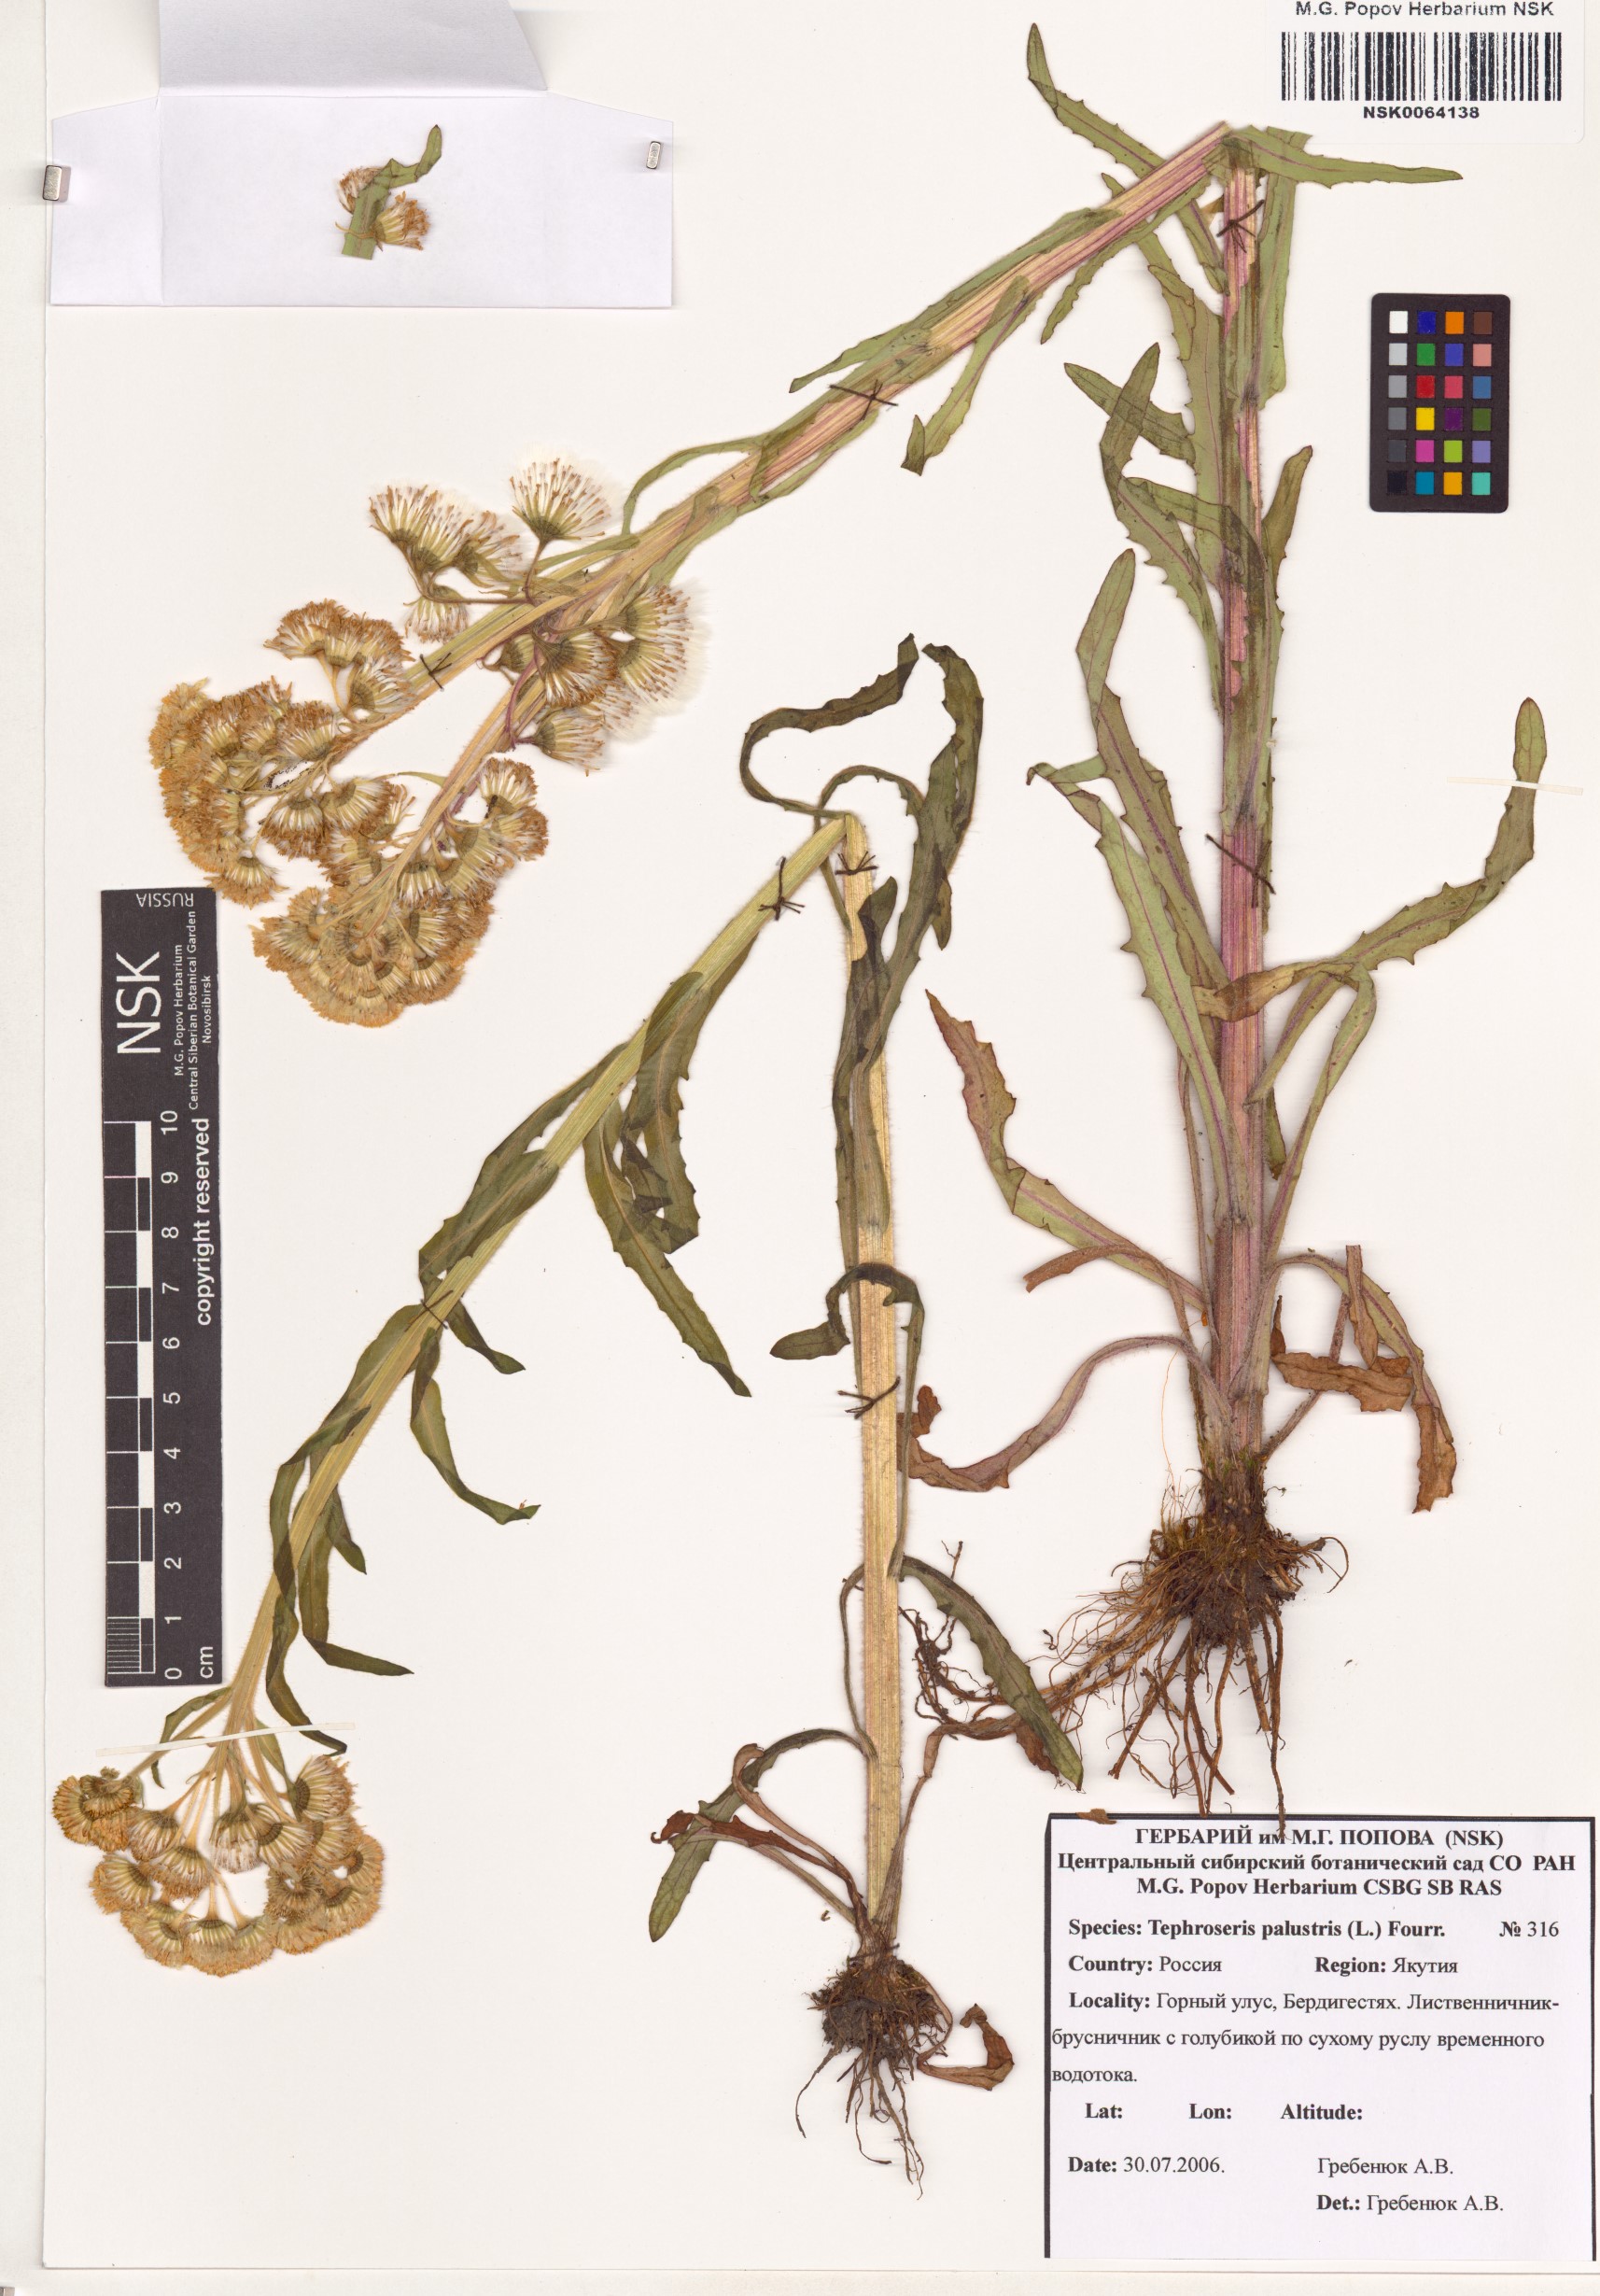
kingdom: Plantae
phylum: Tracheophyta
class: Magnoliopsida
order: Asterales
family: Asteraceae
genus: Tephroseris
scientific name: Tephroseris palustris
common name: Marsh fleawort
